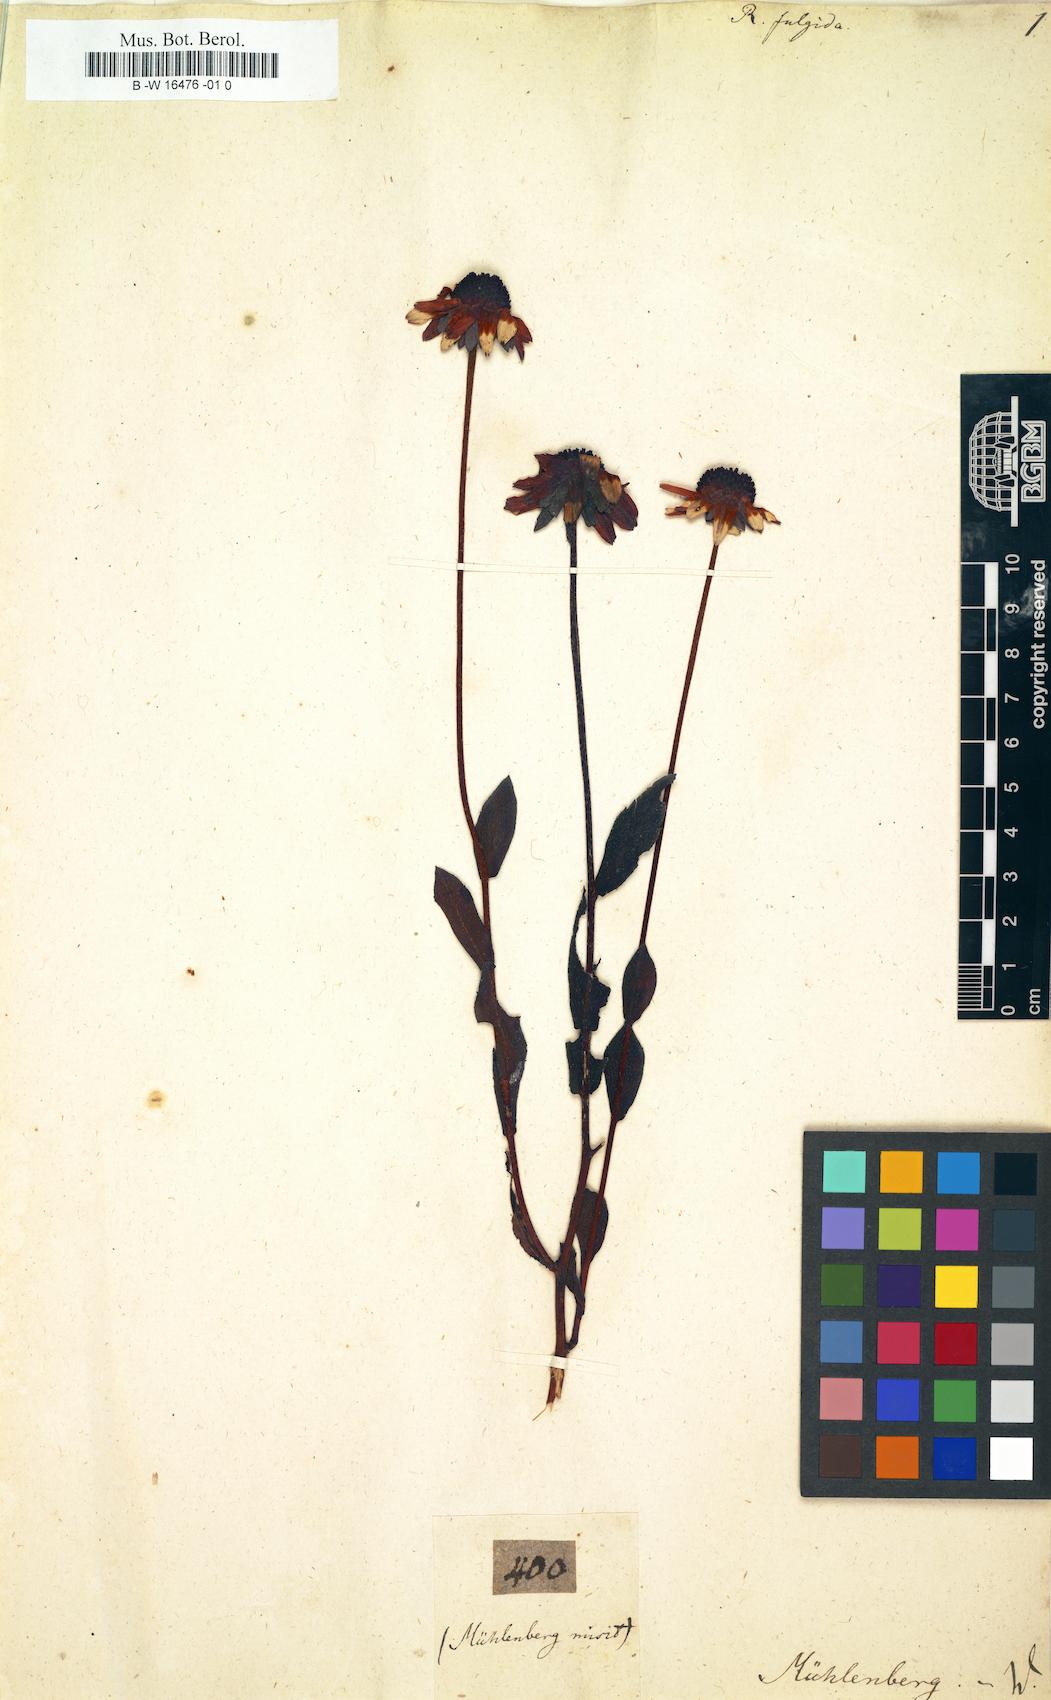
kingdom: Plantae
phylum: Tracheophyta
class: Magnoliopsida
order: Asterales
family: Asteraceae
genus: Rudbeckia
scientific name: Rudbeckia fulgida
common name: Perennial coneflower
